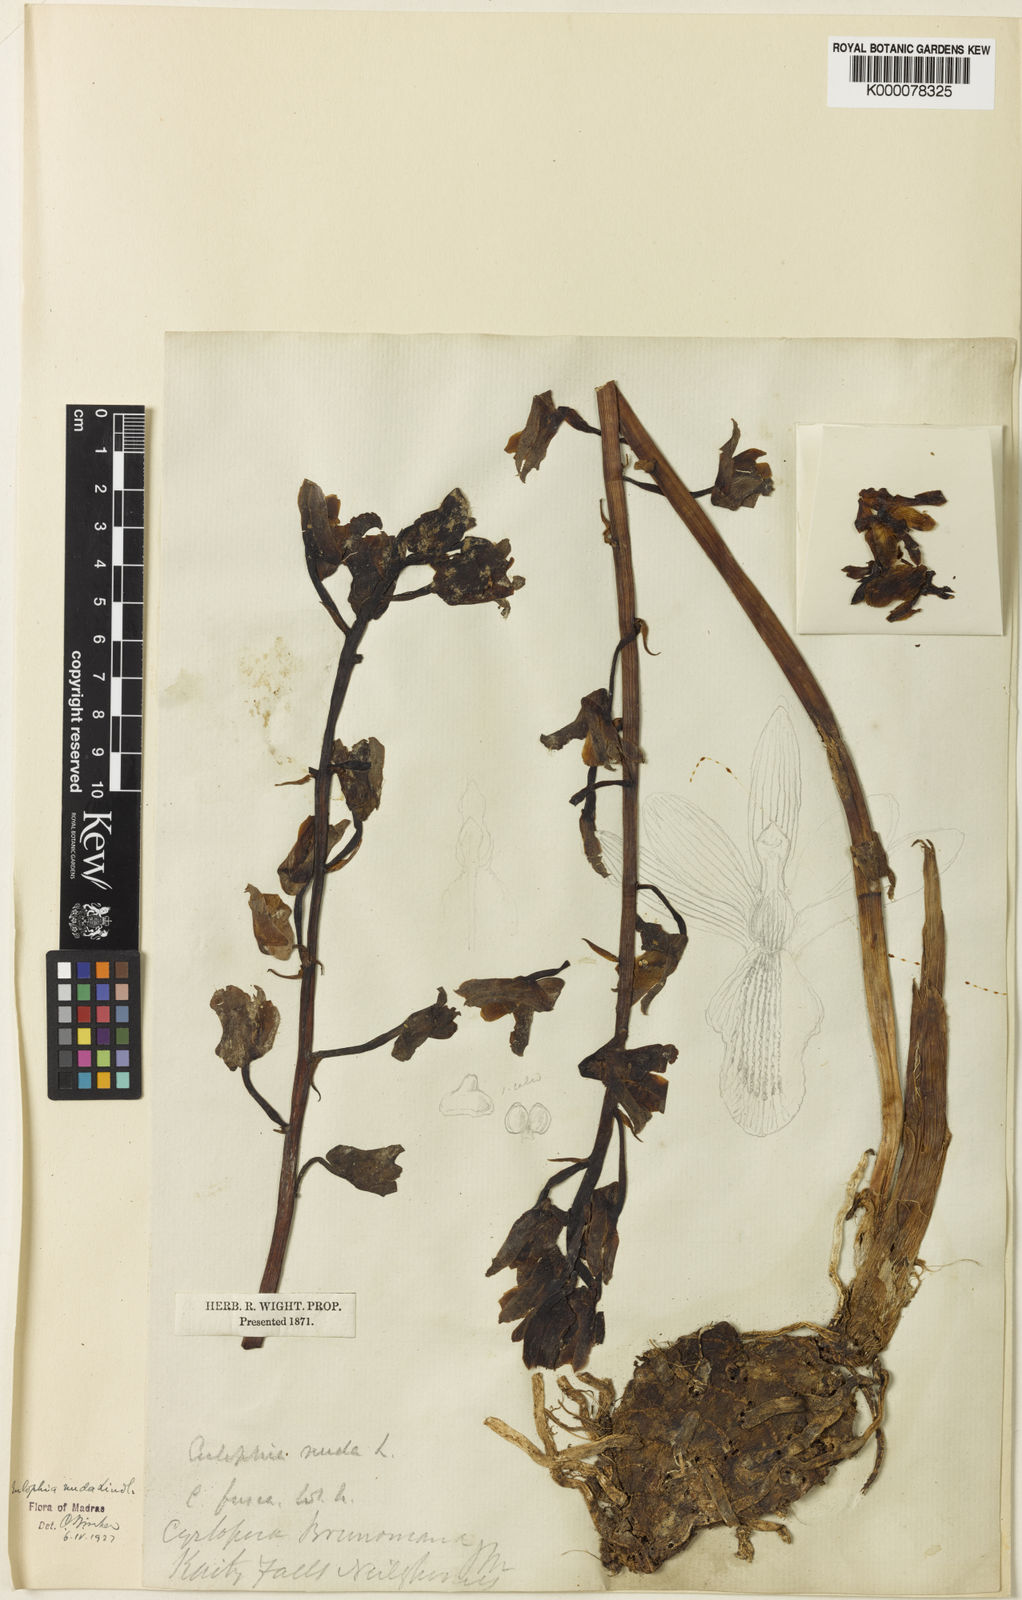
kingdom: Plantae
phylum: Tracheophyta
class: Liliopsida
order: Asparagales
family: Orchidaceae
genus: Eulophia
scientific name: Eulophia nuda
